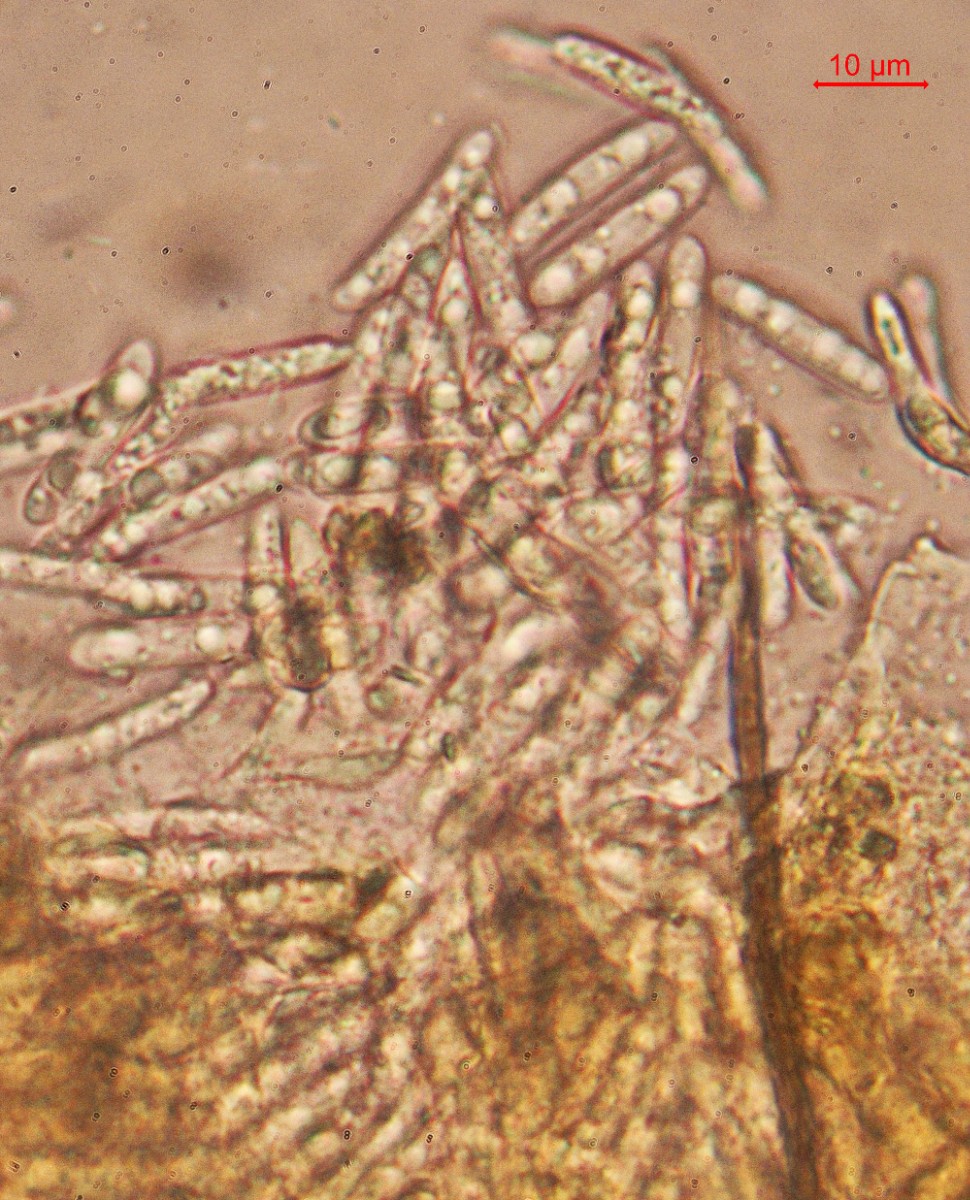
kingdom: Fungi
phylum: Ascomycota
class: Sordariomycetes
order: Glomerellales
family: Glomerellaceae
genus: Colletotrichum
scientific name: Colletotrichum gloeosporioides
